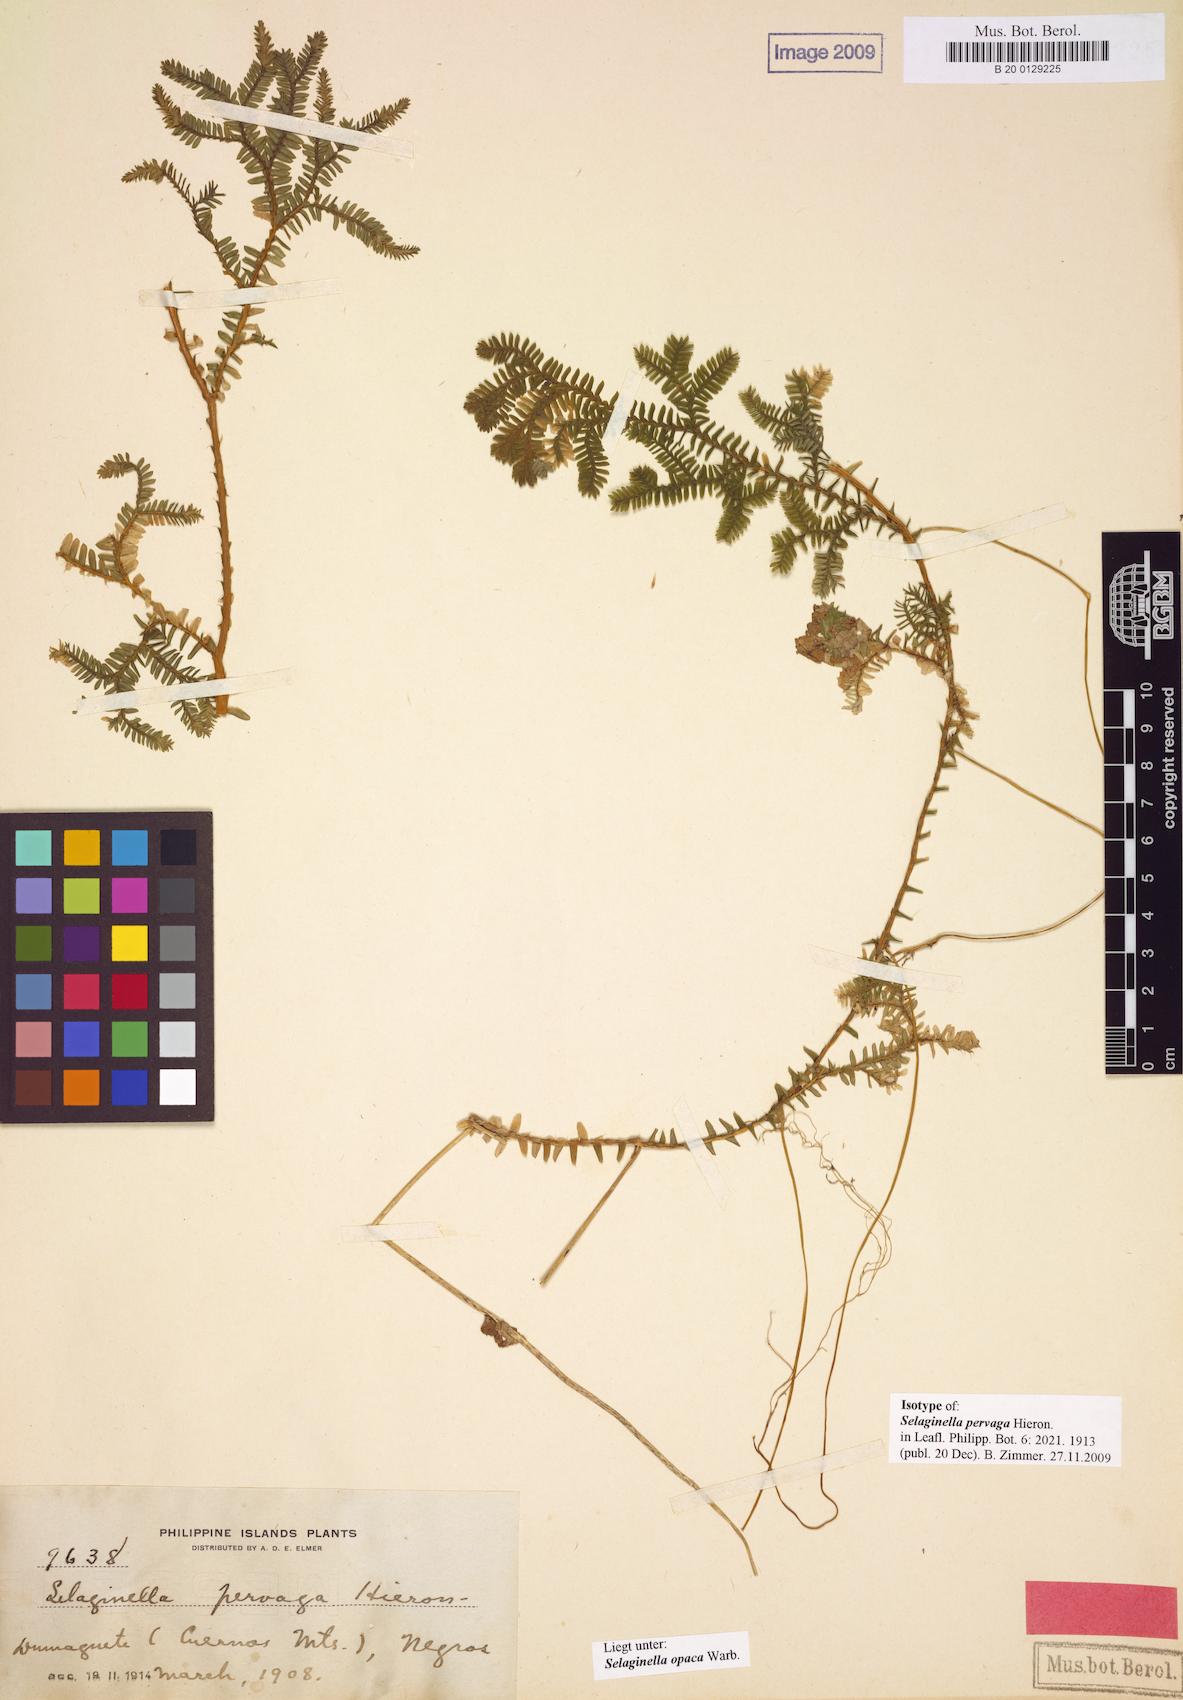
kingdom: Plantae
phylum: Tracheophyta
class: Lycopodiopsida
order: Selaginellales
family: Selaginellaceae
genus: Selaginella
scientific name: Selaginella opaca
